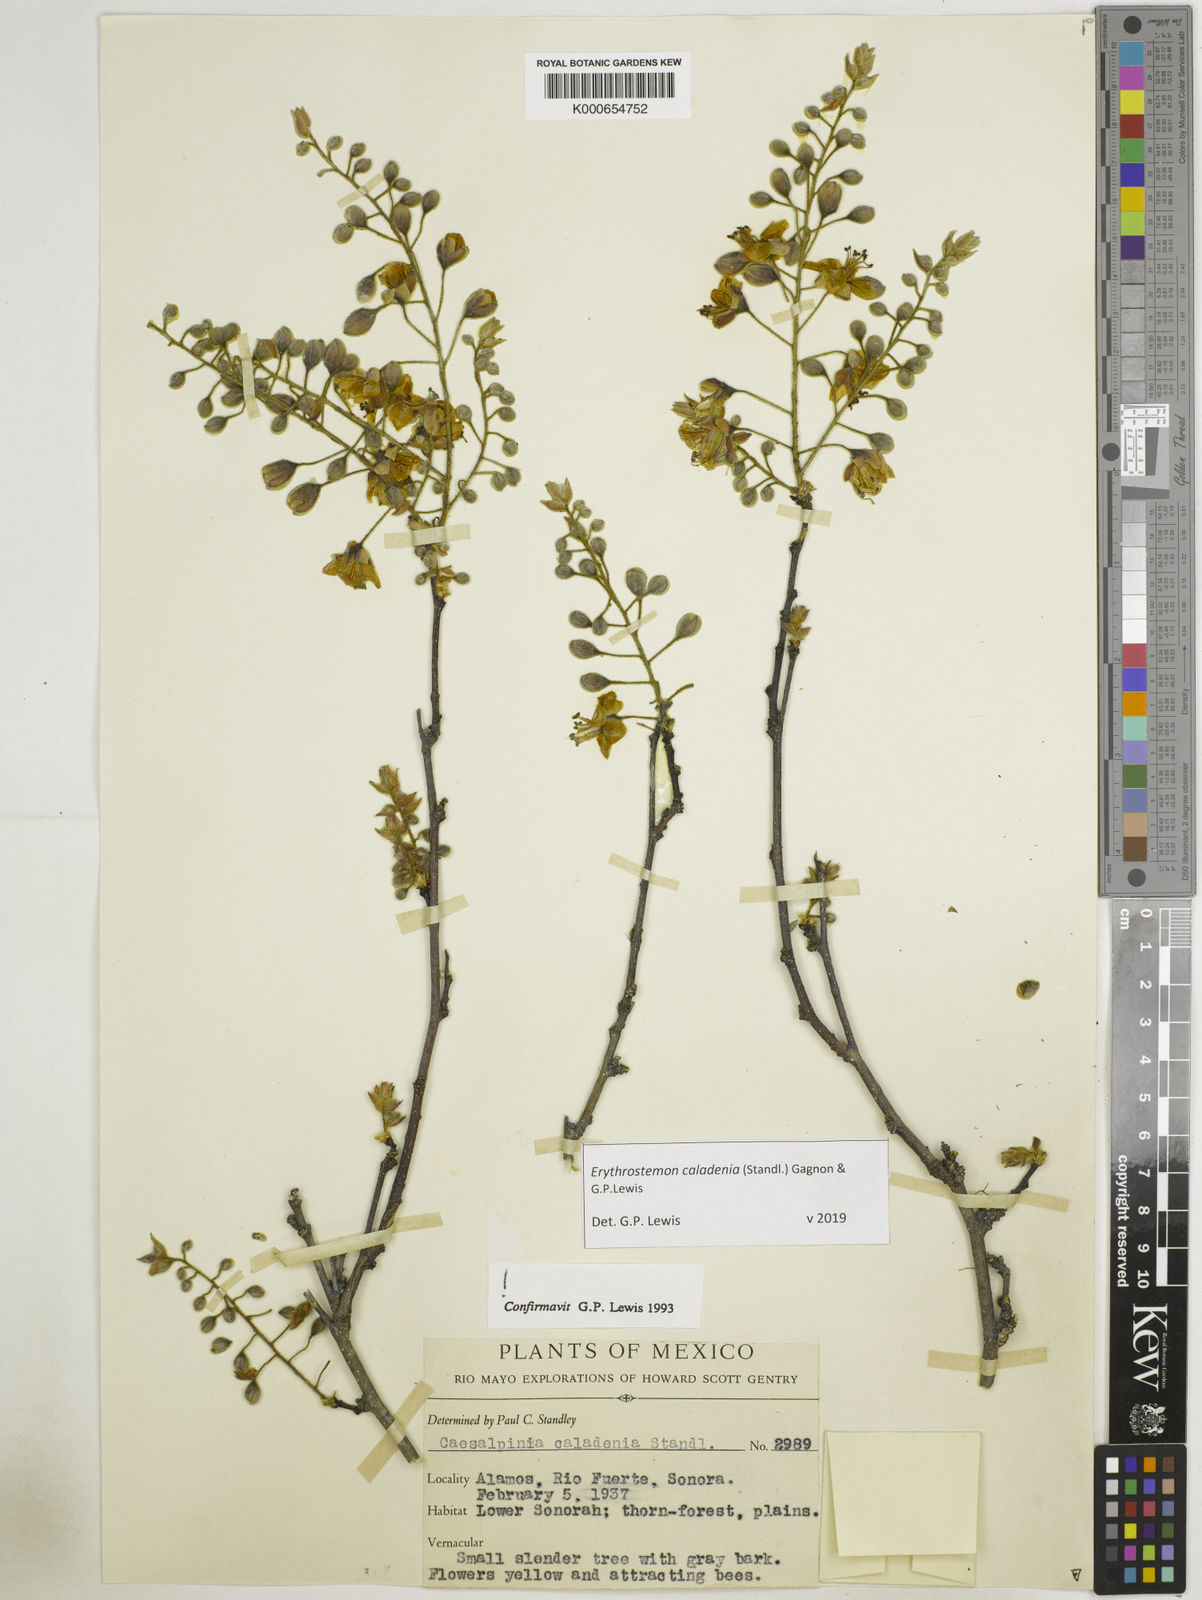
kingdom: Plantae
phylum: Tracheophyta
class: Magnoliopsida
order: Fabales
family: Fabaceae
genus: Erythrostemon
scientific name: Erythrostemon caladenia
